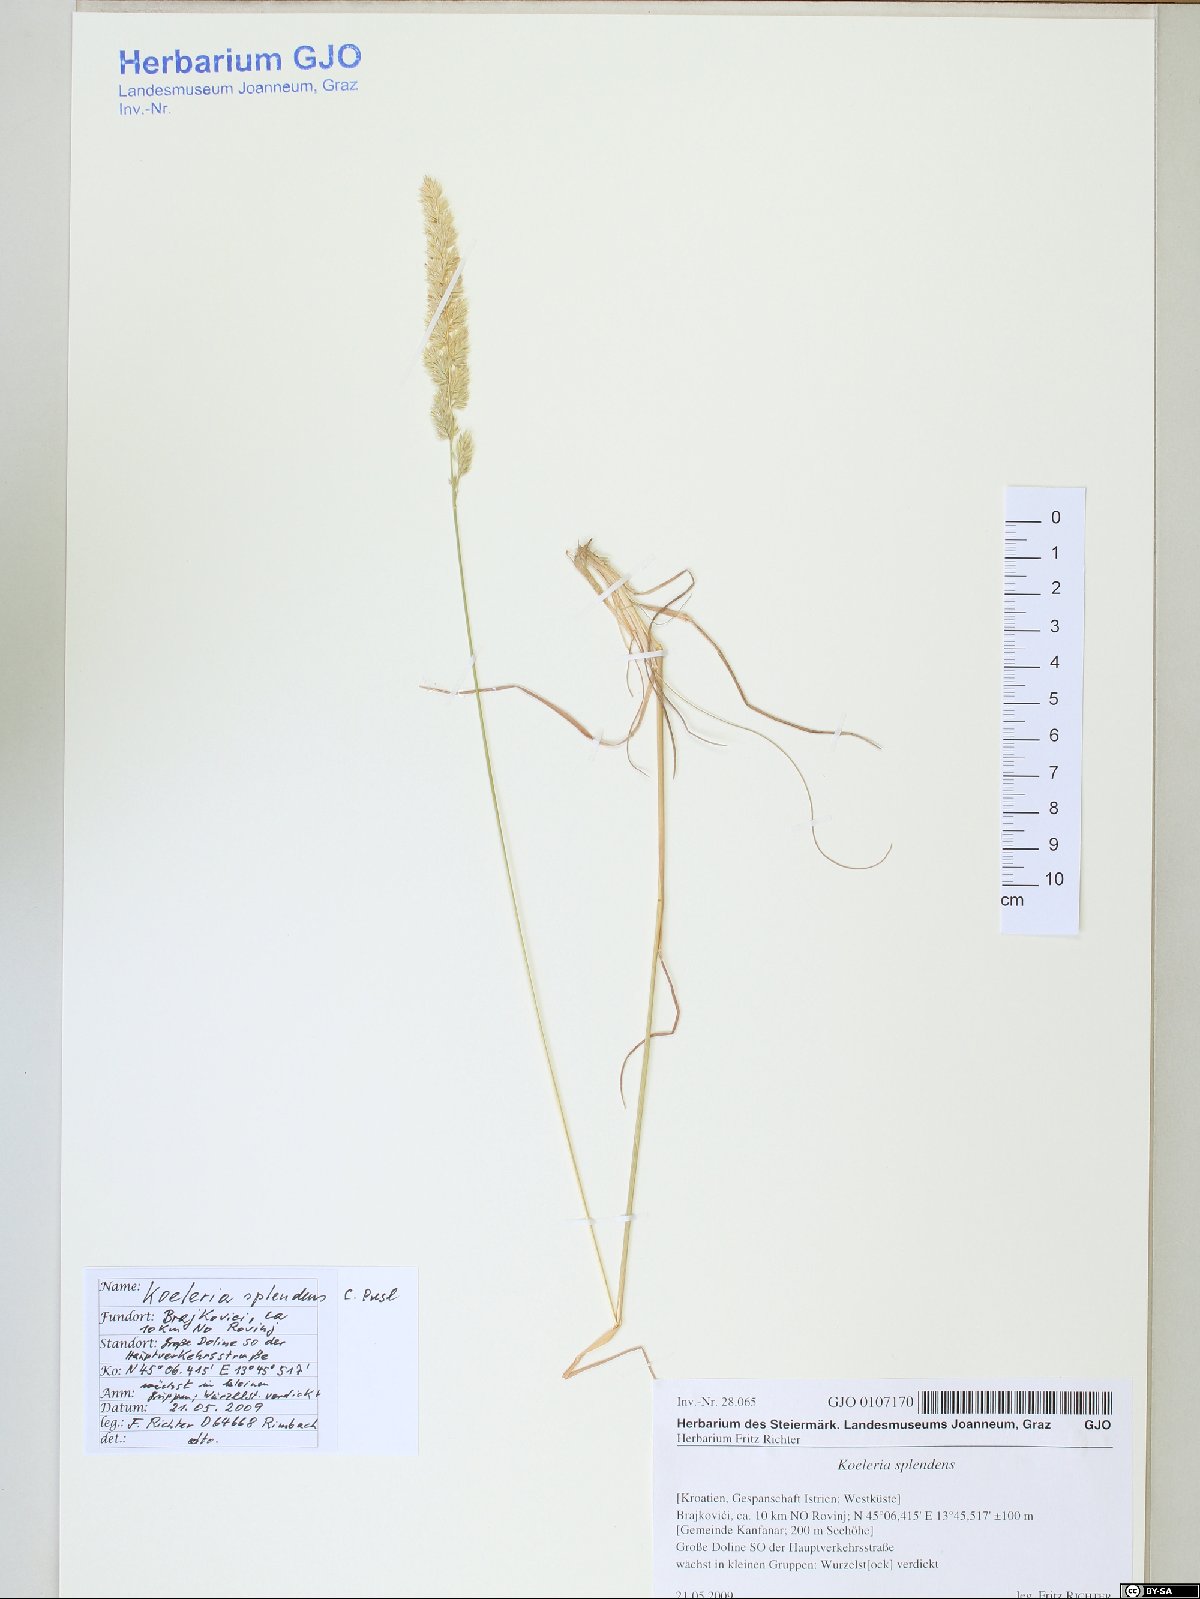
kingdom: Plantae
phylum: Tracheophyta
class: Liliopsida
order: Poales
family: Poaceae
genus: Koeleria
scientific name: Koeleria splendens
